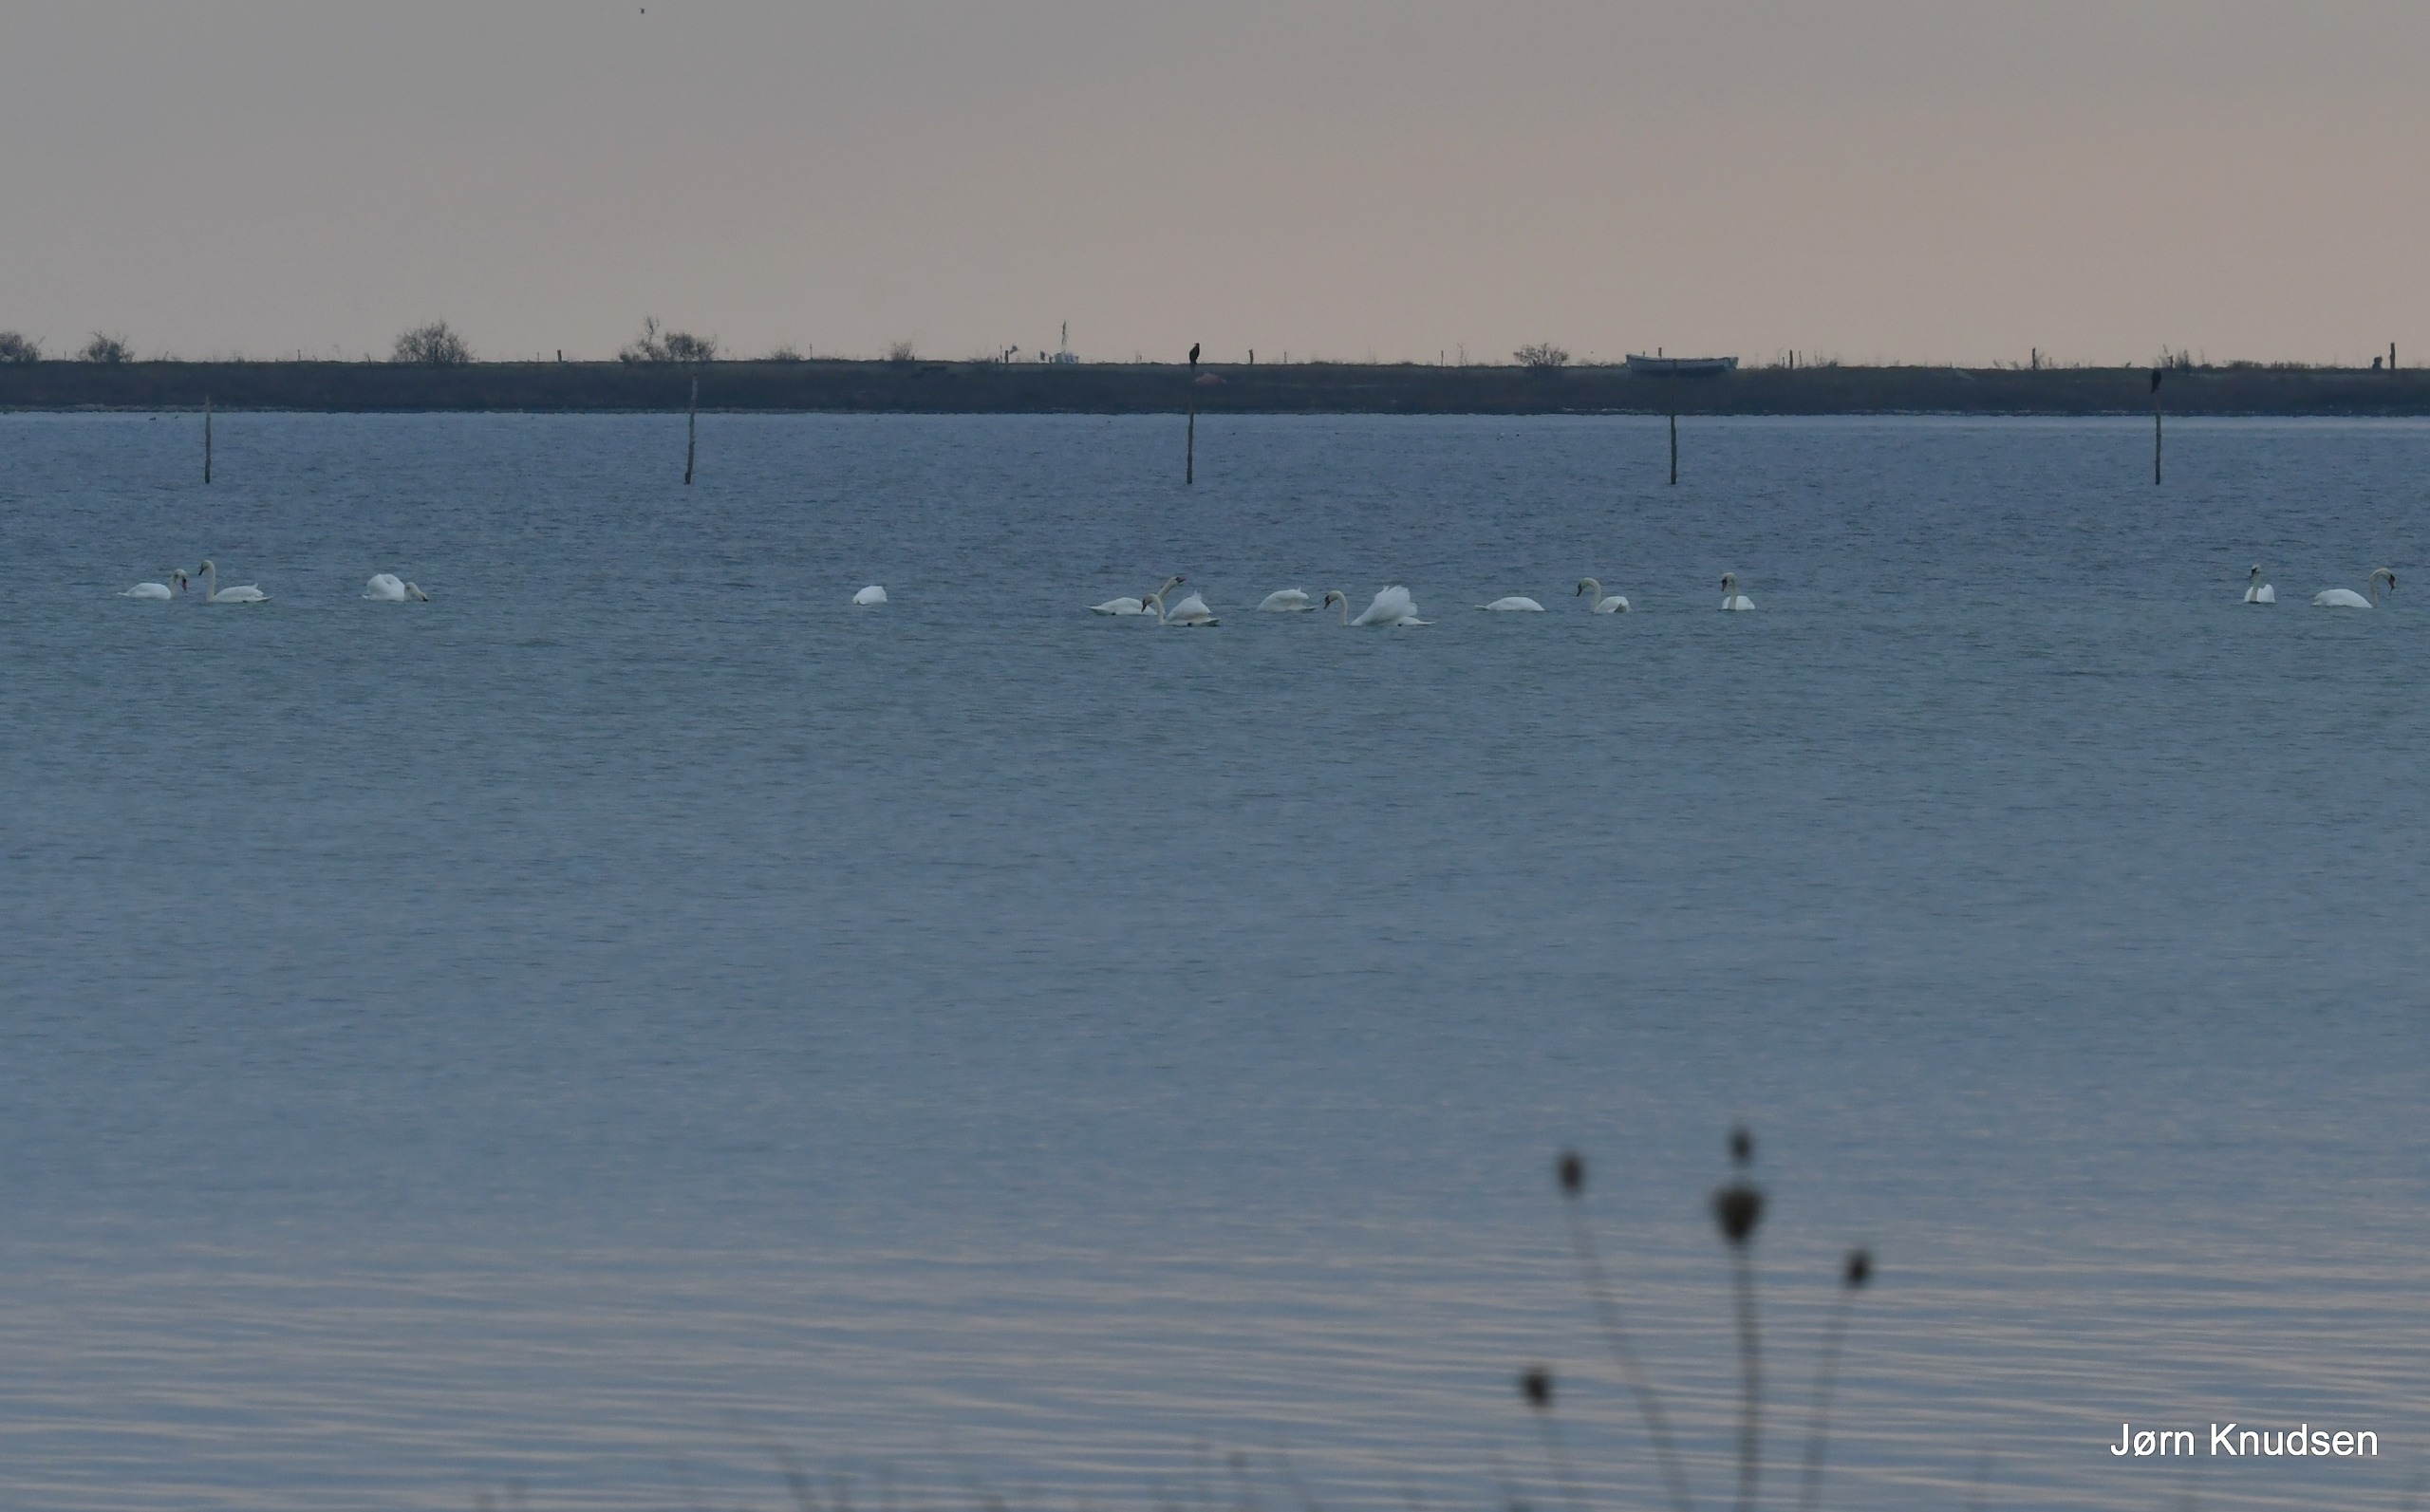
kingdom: Animalia
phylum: Chordata
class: Aves
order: Anseriformes
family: Anatidae
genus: Cygnus
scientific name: Cygnus olor
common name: Knopsvane
